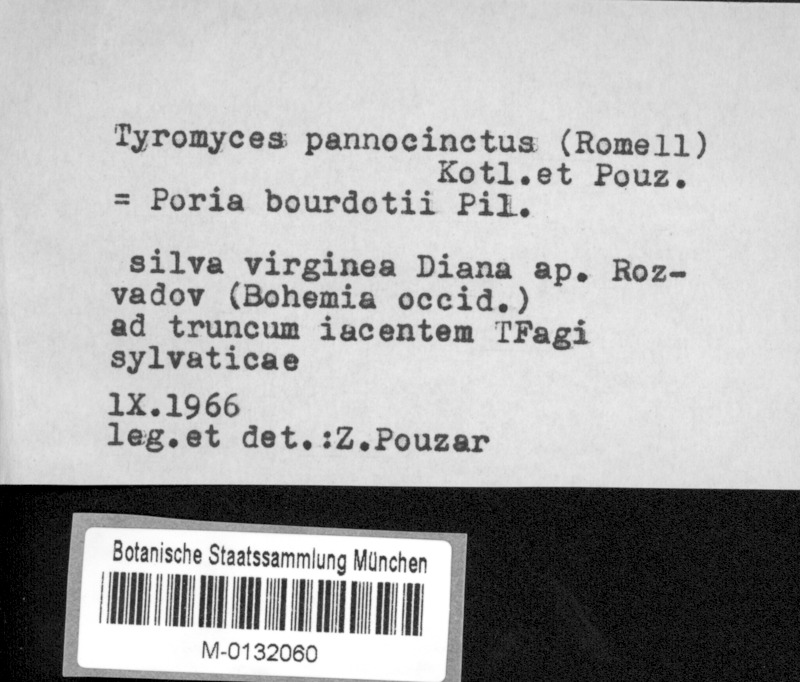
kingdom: Plantae
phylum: Tracheophyta
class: Magnoliopsida
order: Fagales
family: Fagaceae
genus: Fagus
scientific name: Fagus sylvatica
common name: Beech
